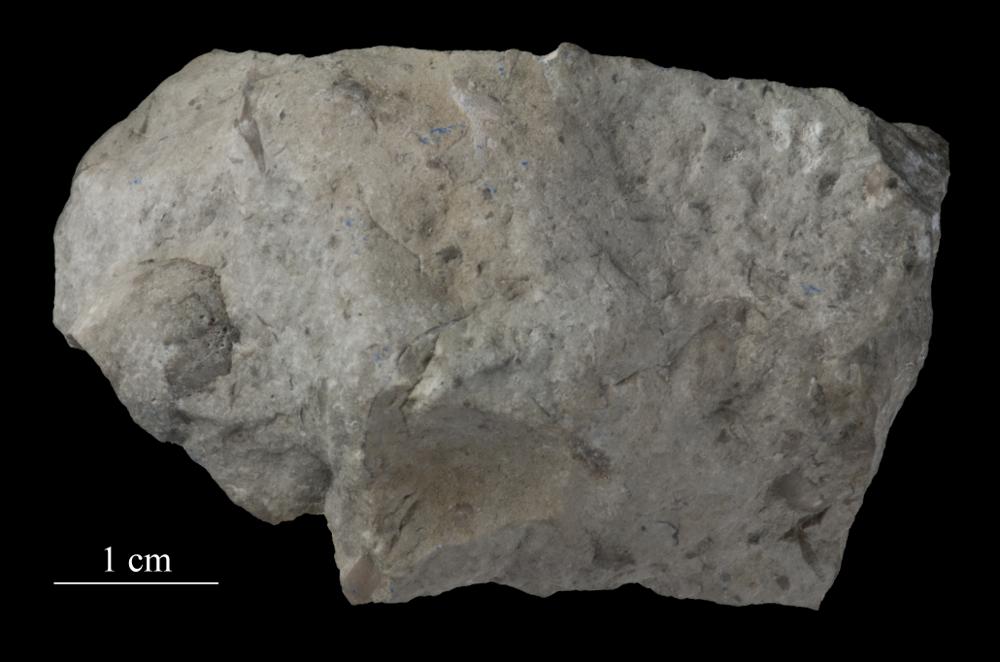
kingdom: Animalia
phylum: Mollusca
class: Gastropoda
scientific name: Gastropoda
